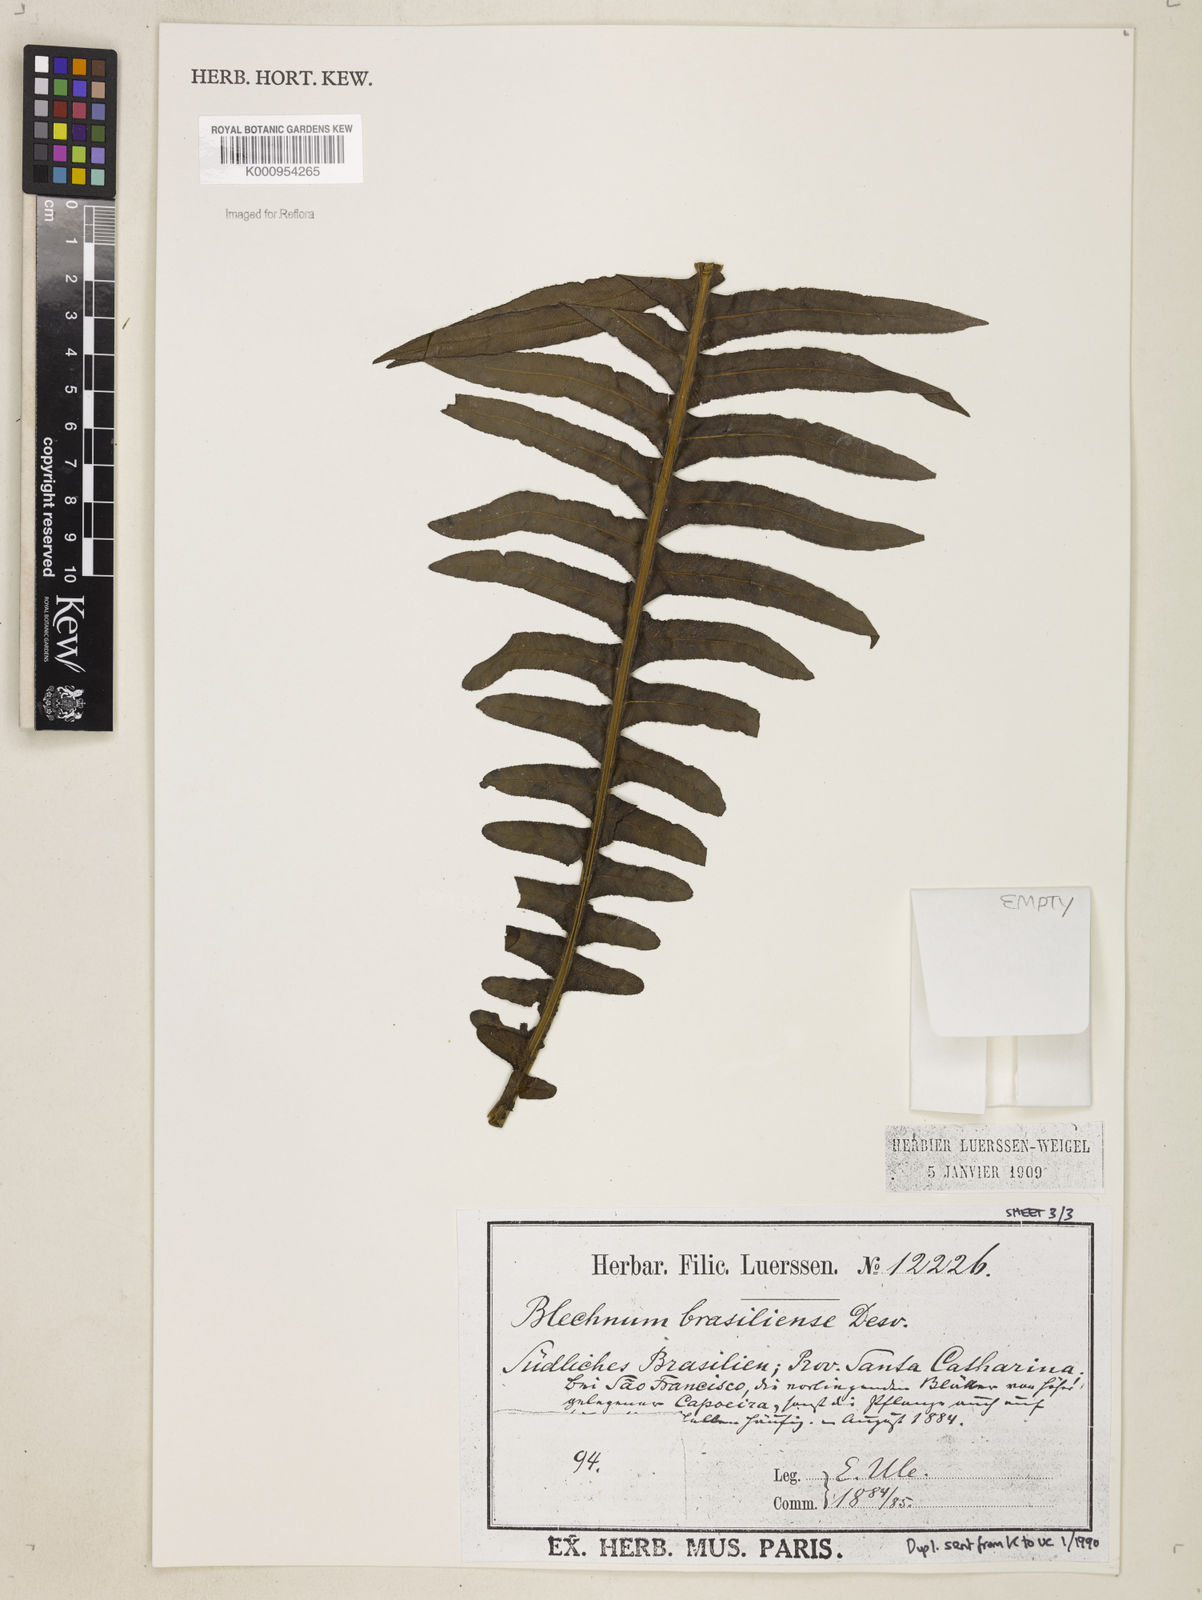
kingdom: Plantae
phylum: Tracheophyta
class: Polypodiopsida
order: Polypodiales
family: Blechnaceae
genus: Neoblechnum
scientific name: Neoblechnum brasiliense
